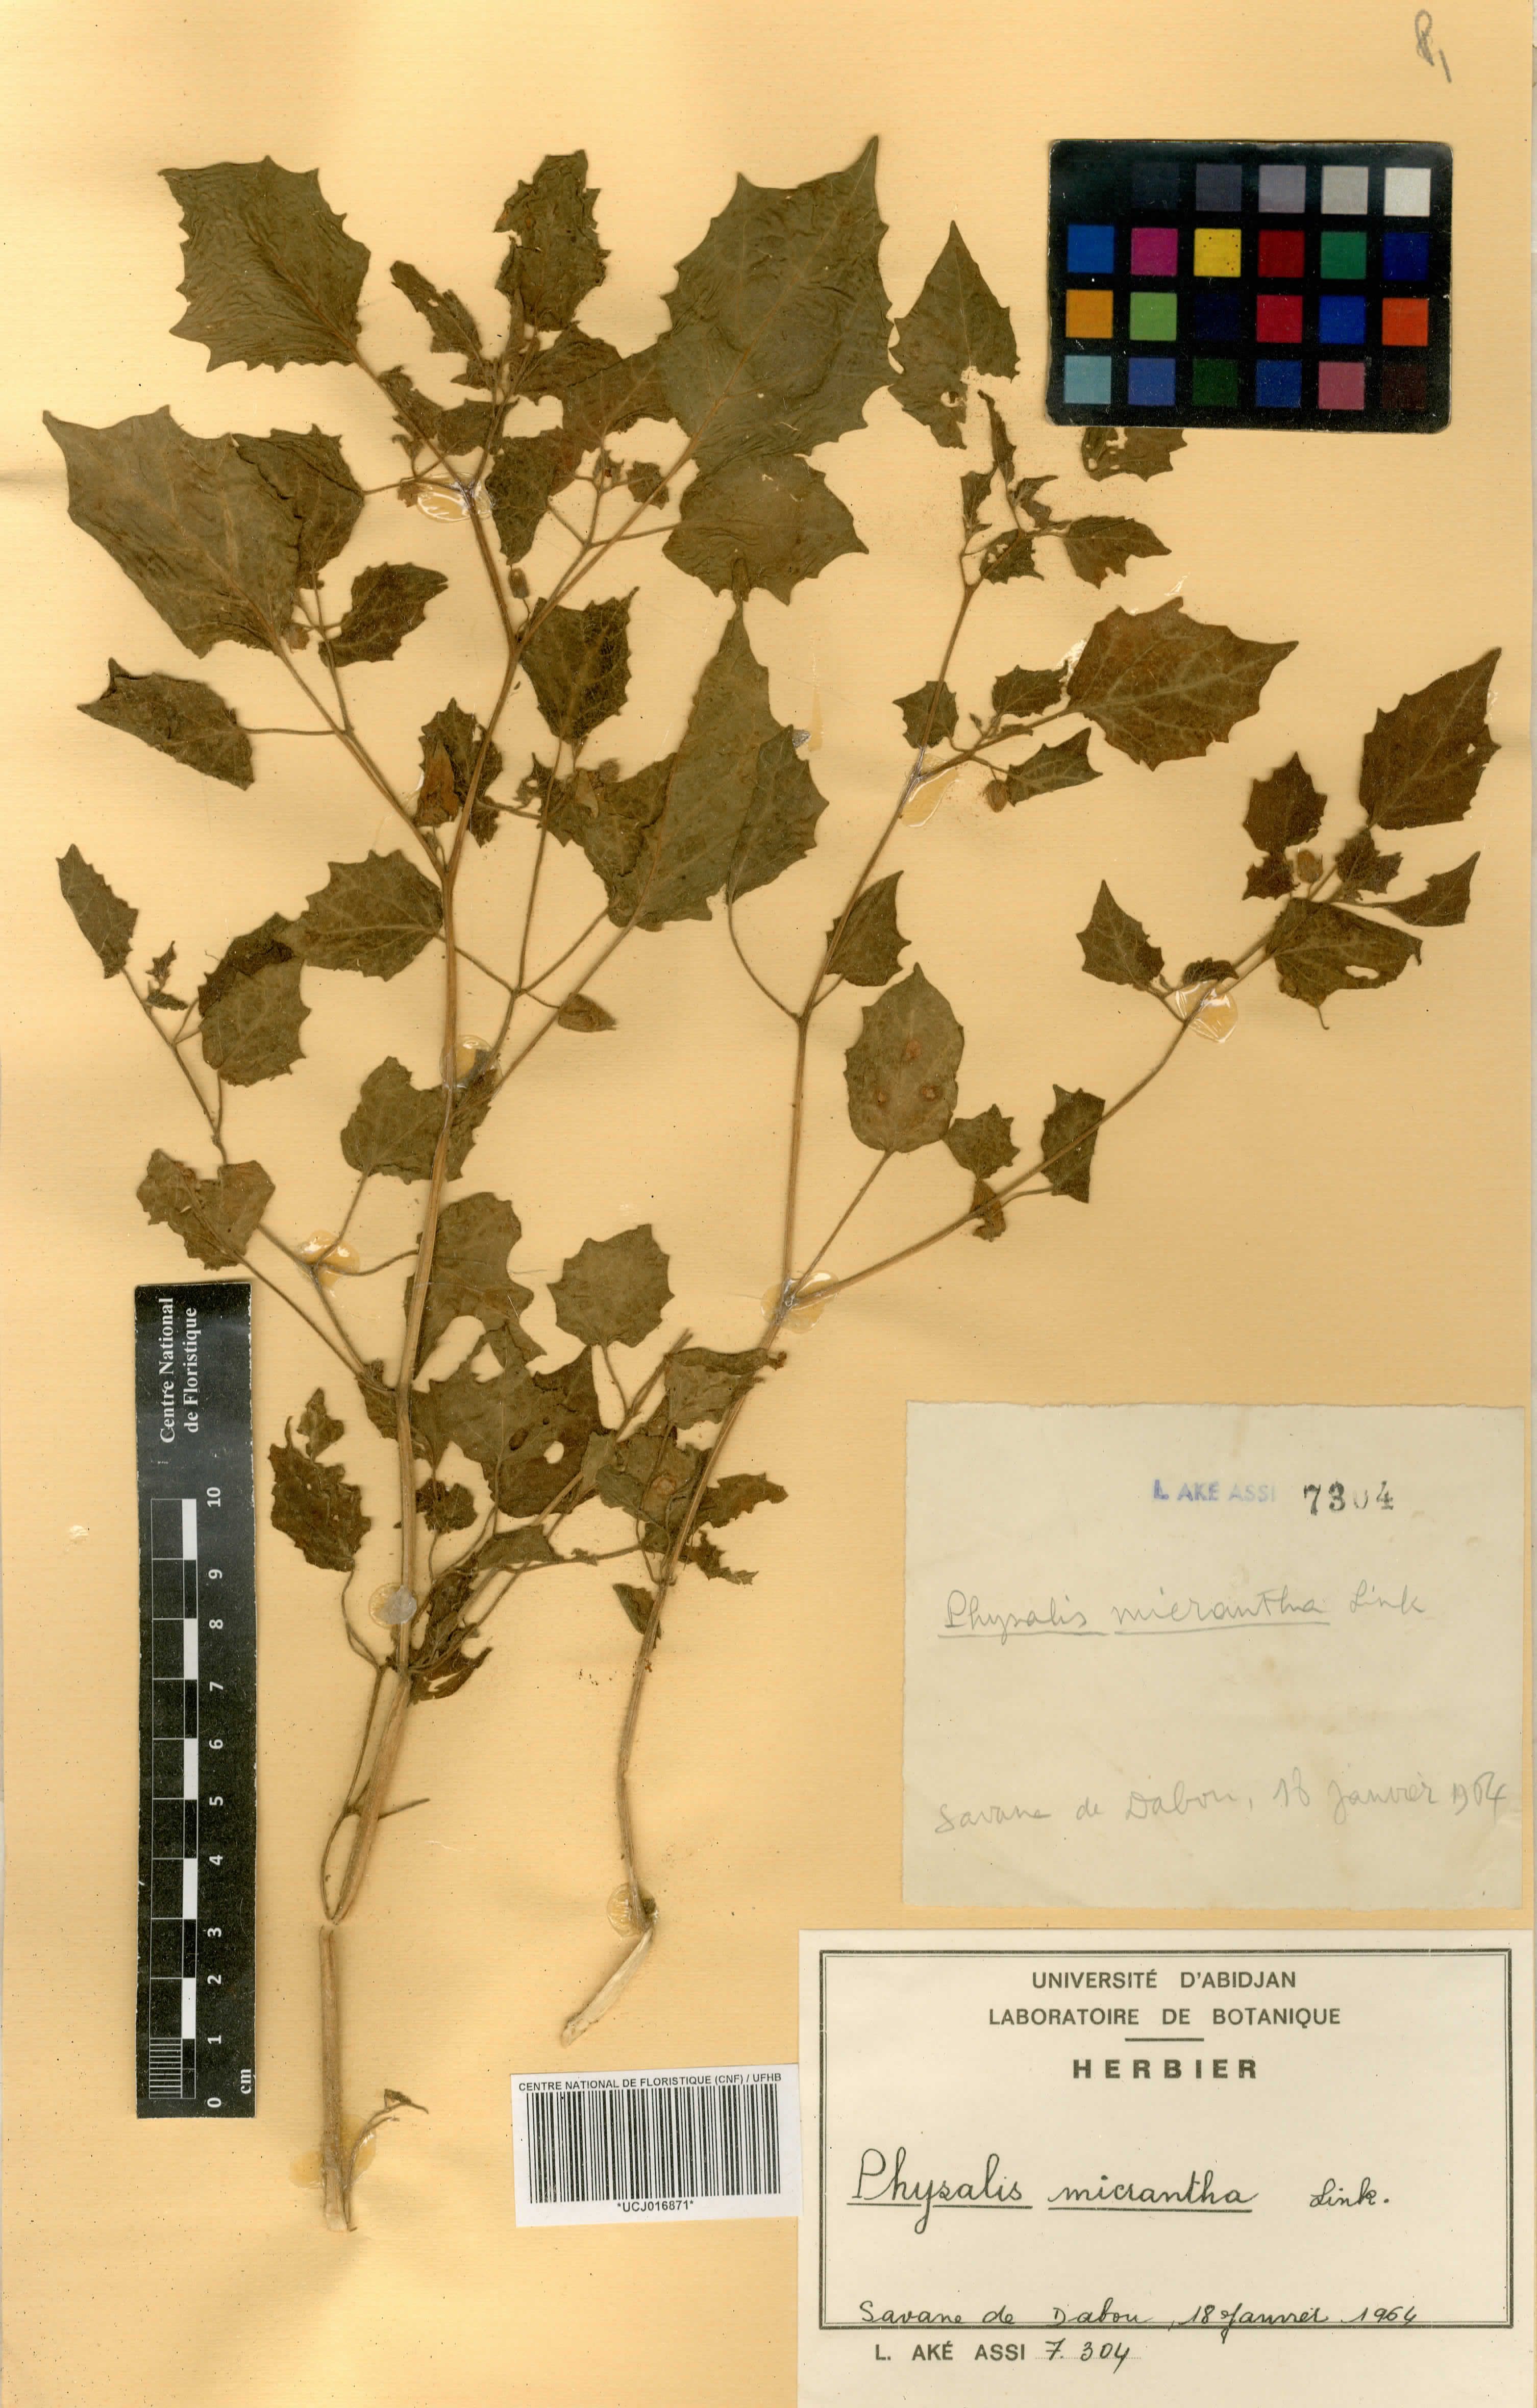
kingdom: Plantae
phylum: Tracheophyta
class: Magnoliopsida
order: Solanales
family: Solanaceae
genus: Physalis
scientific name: Physalis lagascae
